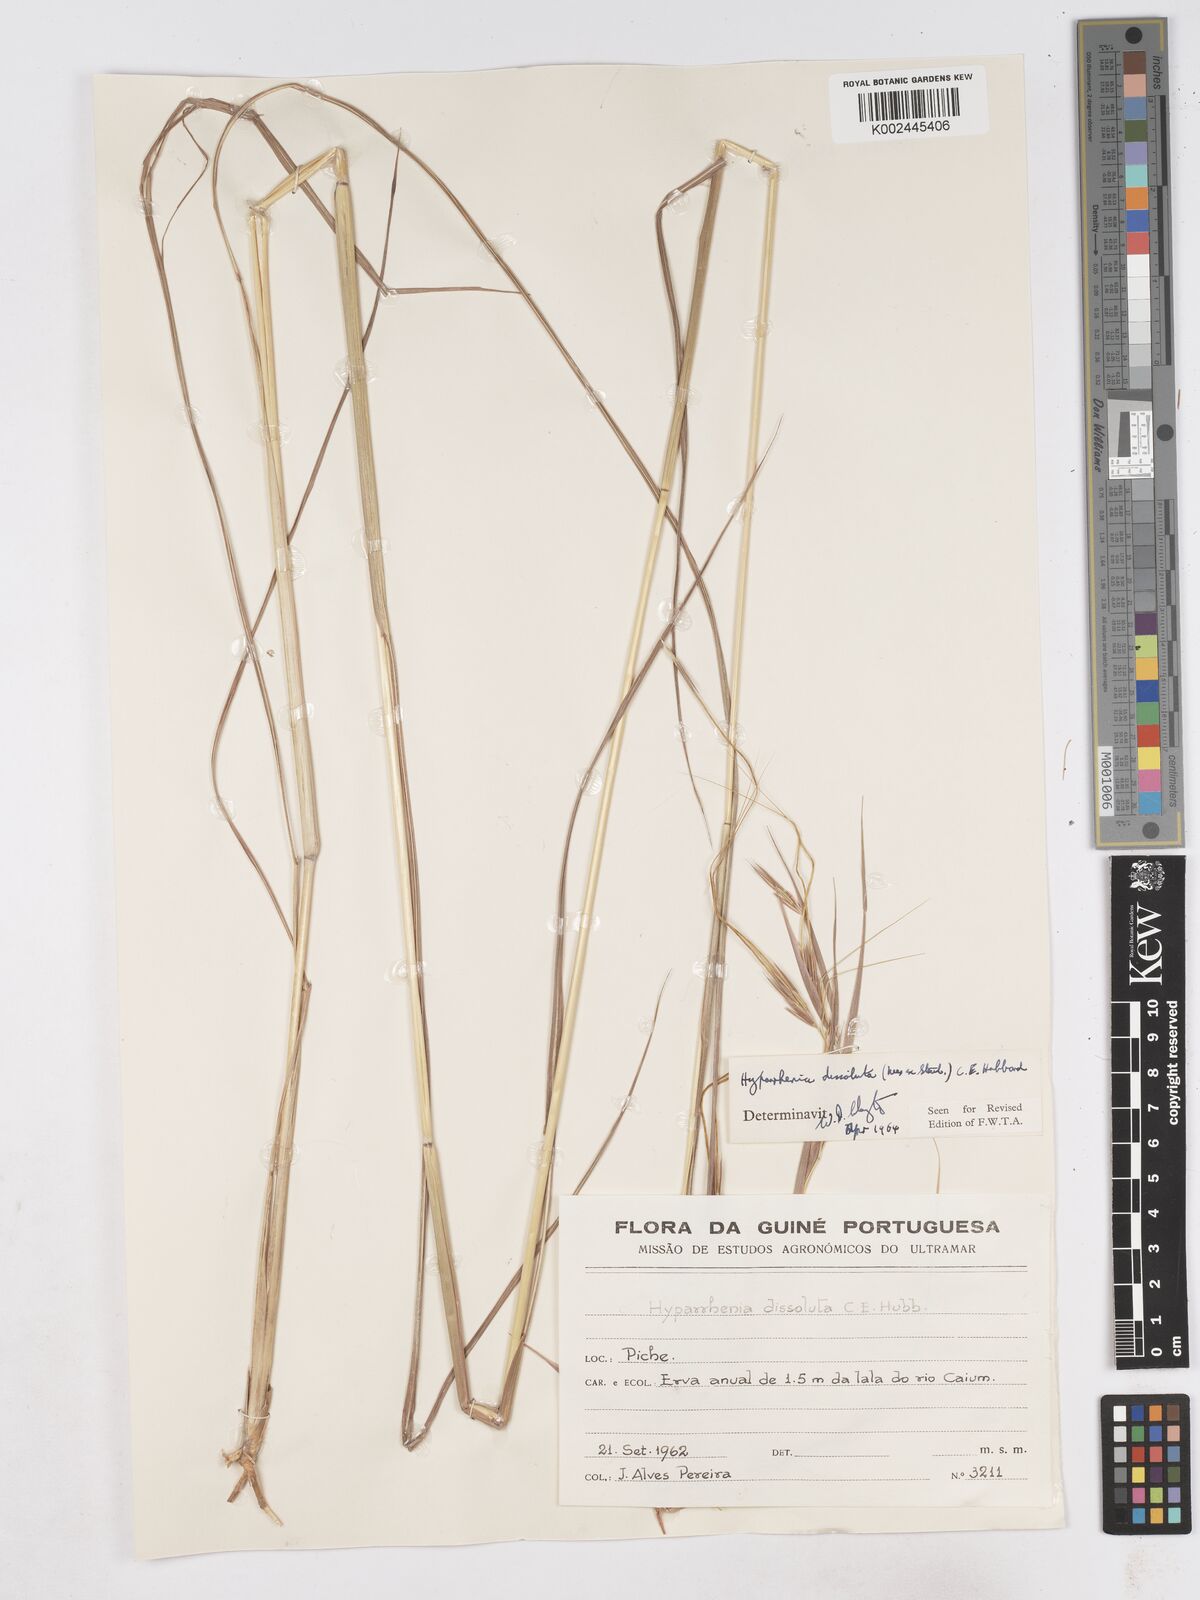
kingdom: Plantae
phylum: Tracheophyta
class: Liliopsida
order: Poales
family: Poaceae
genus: Hyperthelia
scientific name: Hyperthelia dissoluta
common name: Yellow thatching grass
